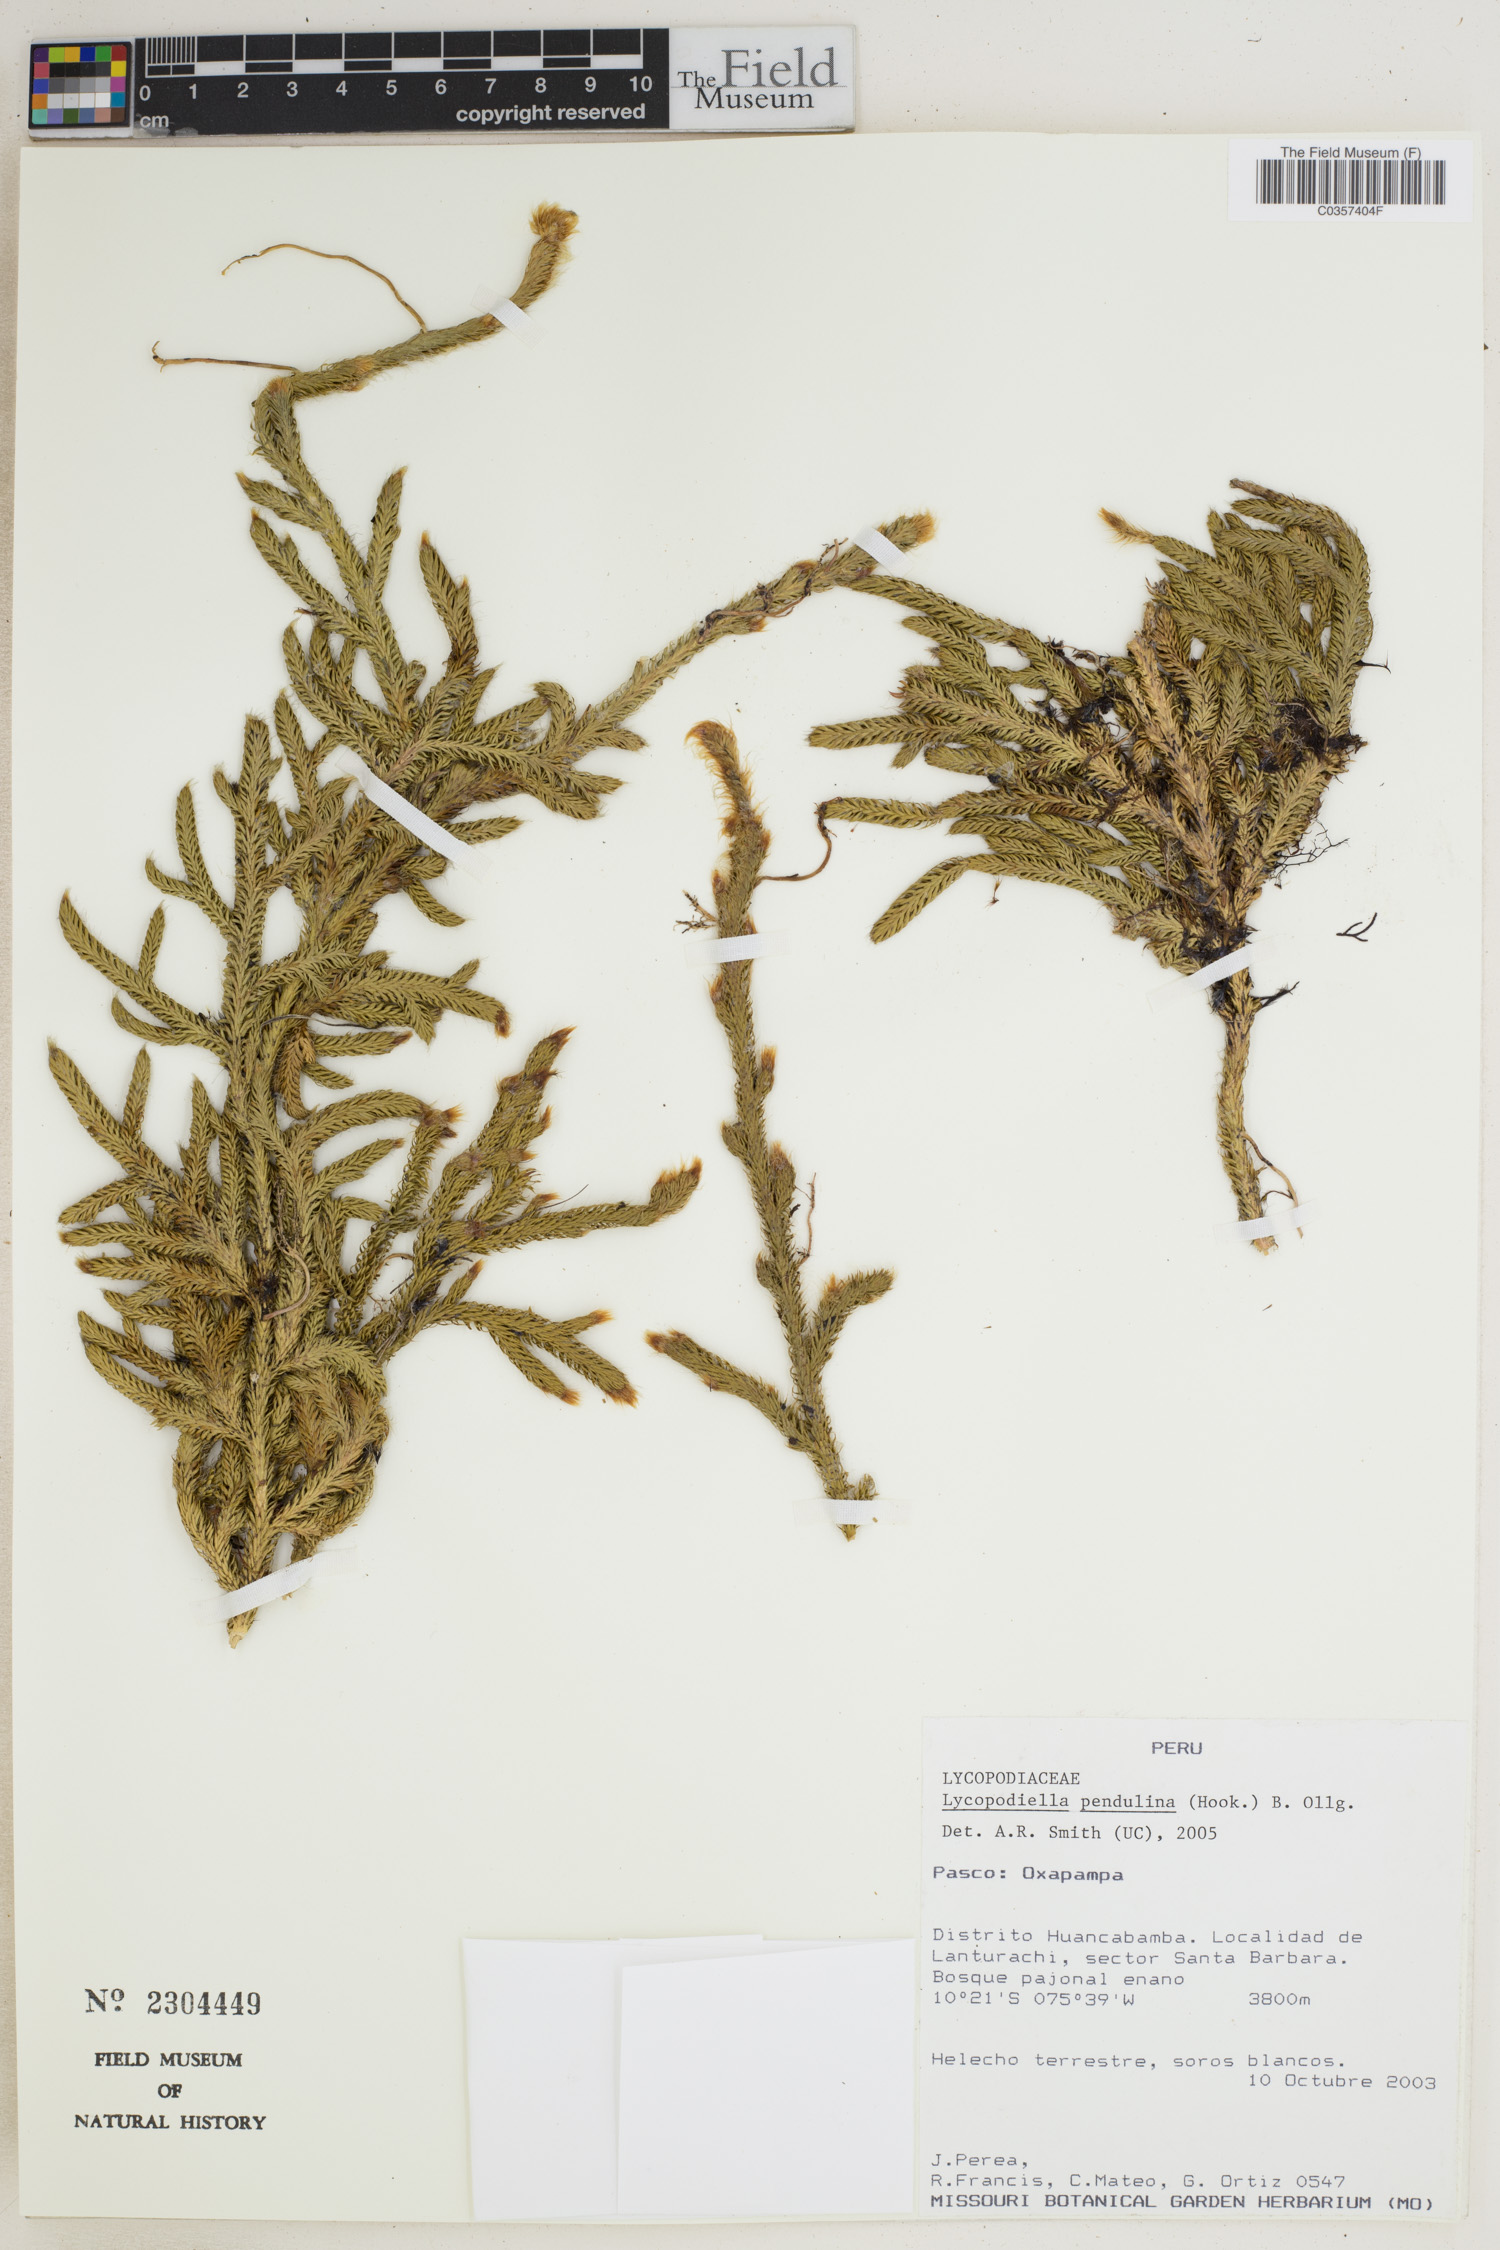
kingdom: Plantae
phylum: Tracheophyta
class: Lycopodiopsida
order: Lycopodiales
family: Lycopodiaceae
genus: Palhinhaea
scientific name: Palhinhaea pendulina
